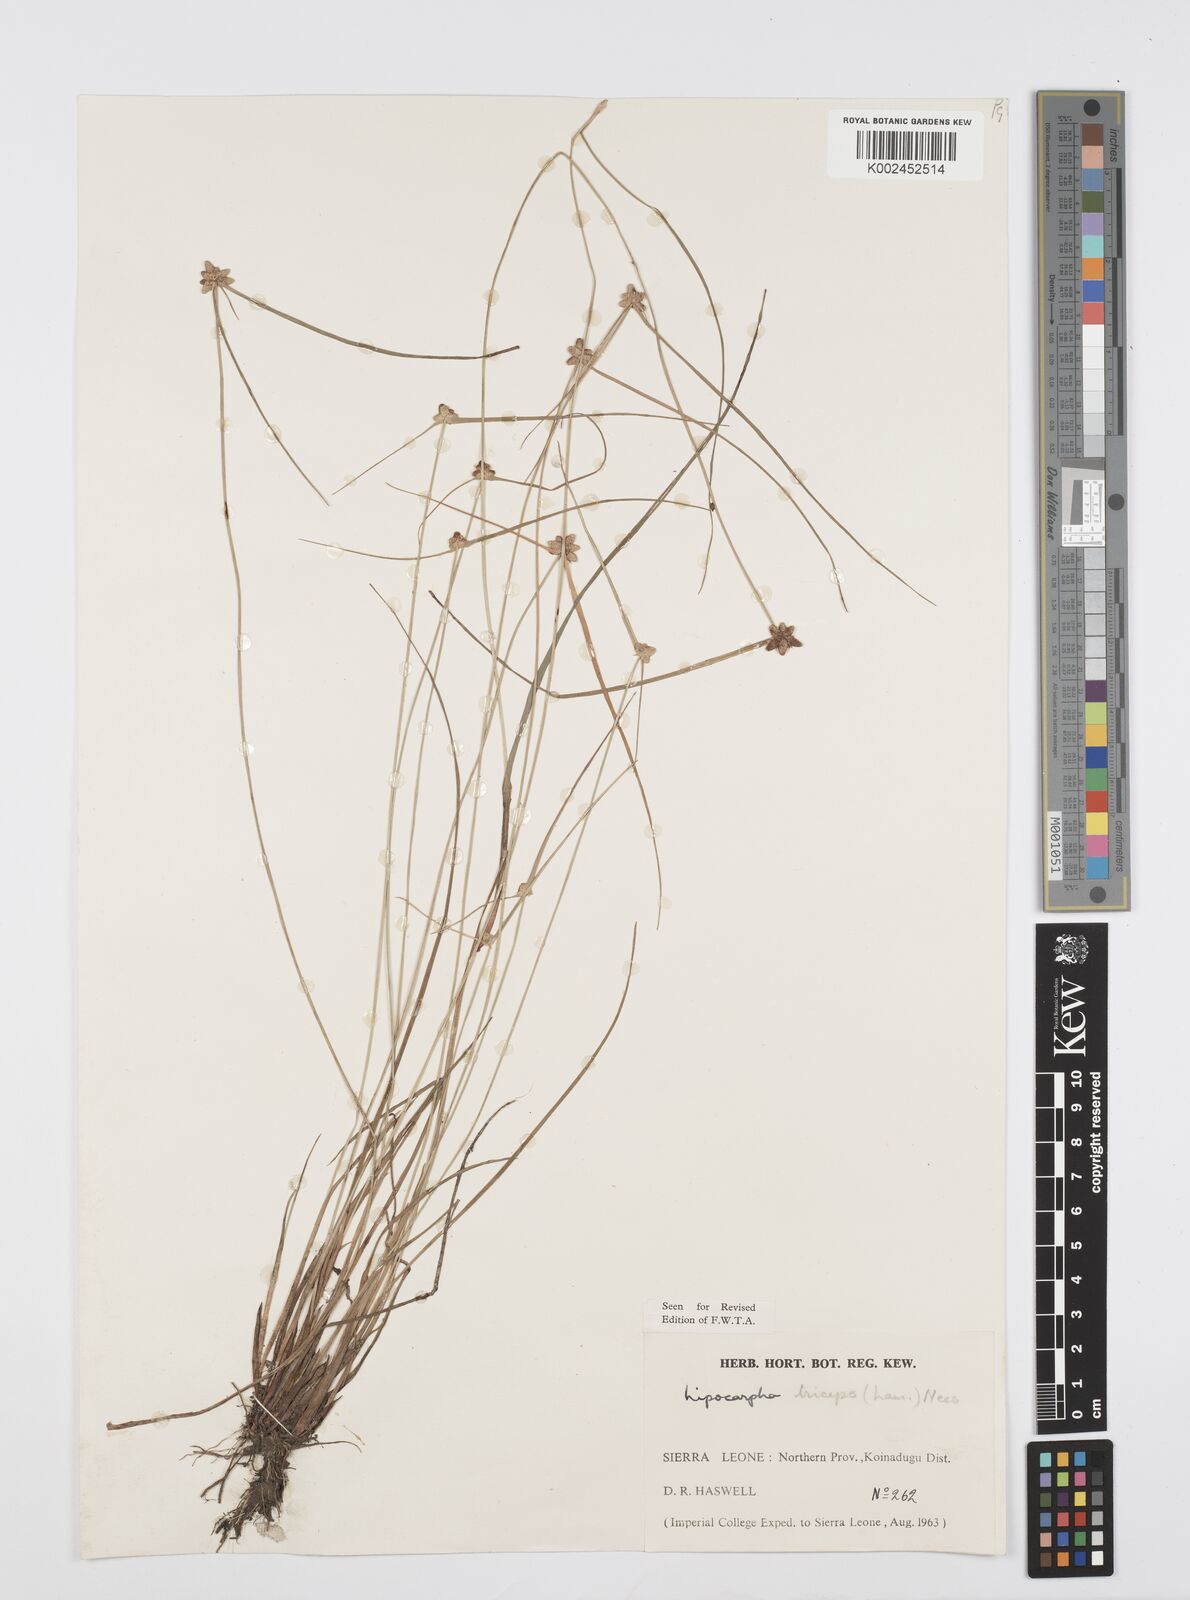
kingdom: Plantae
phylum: Tracheophyta
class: Liliopsida
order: Poales
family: Cyperaceae
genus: Cyperus
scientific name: Cyperus filiformis
